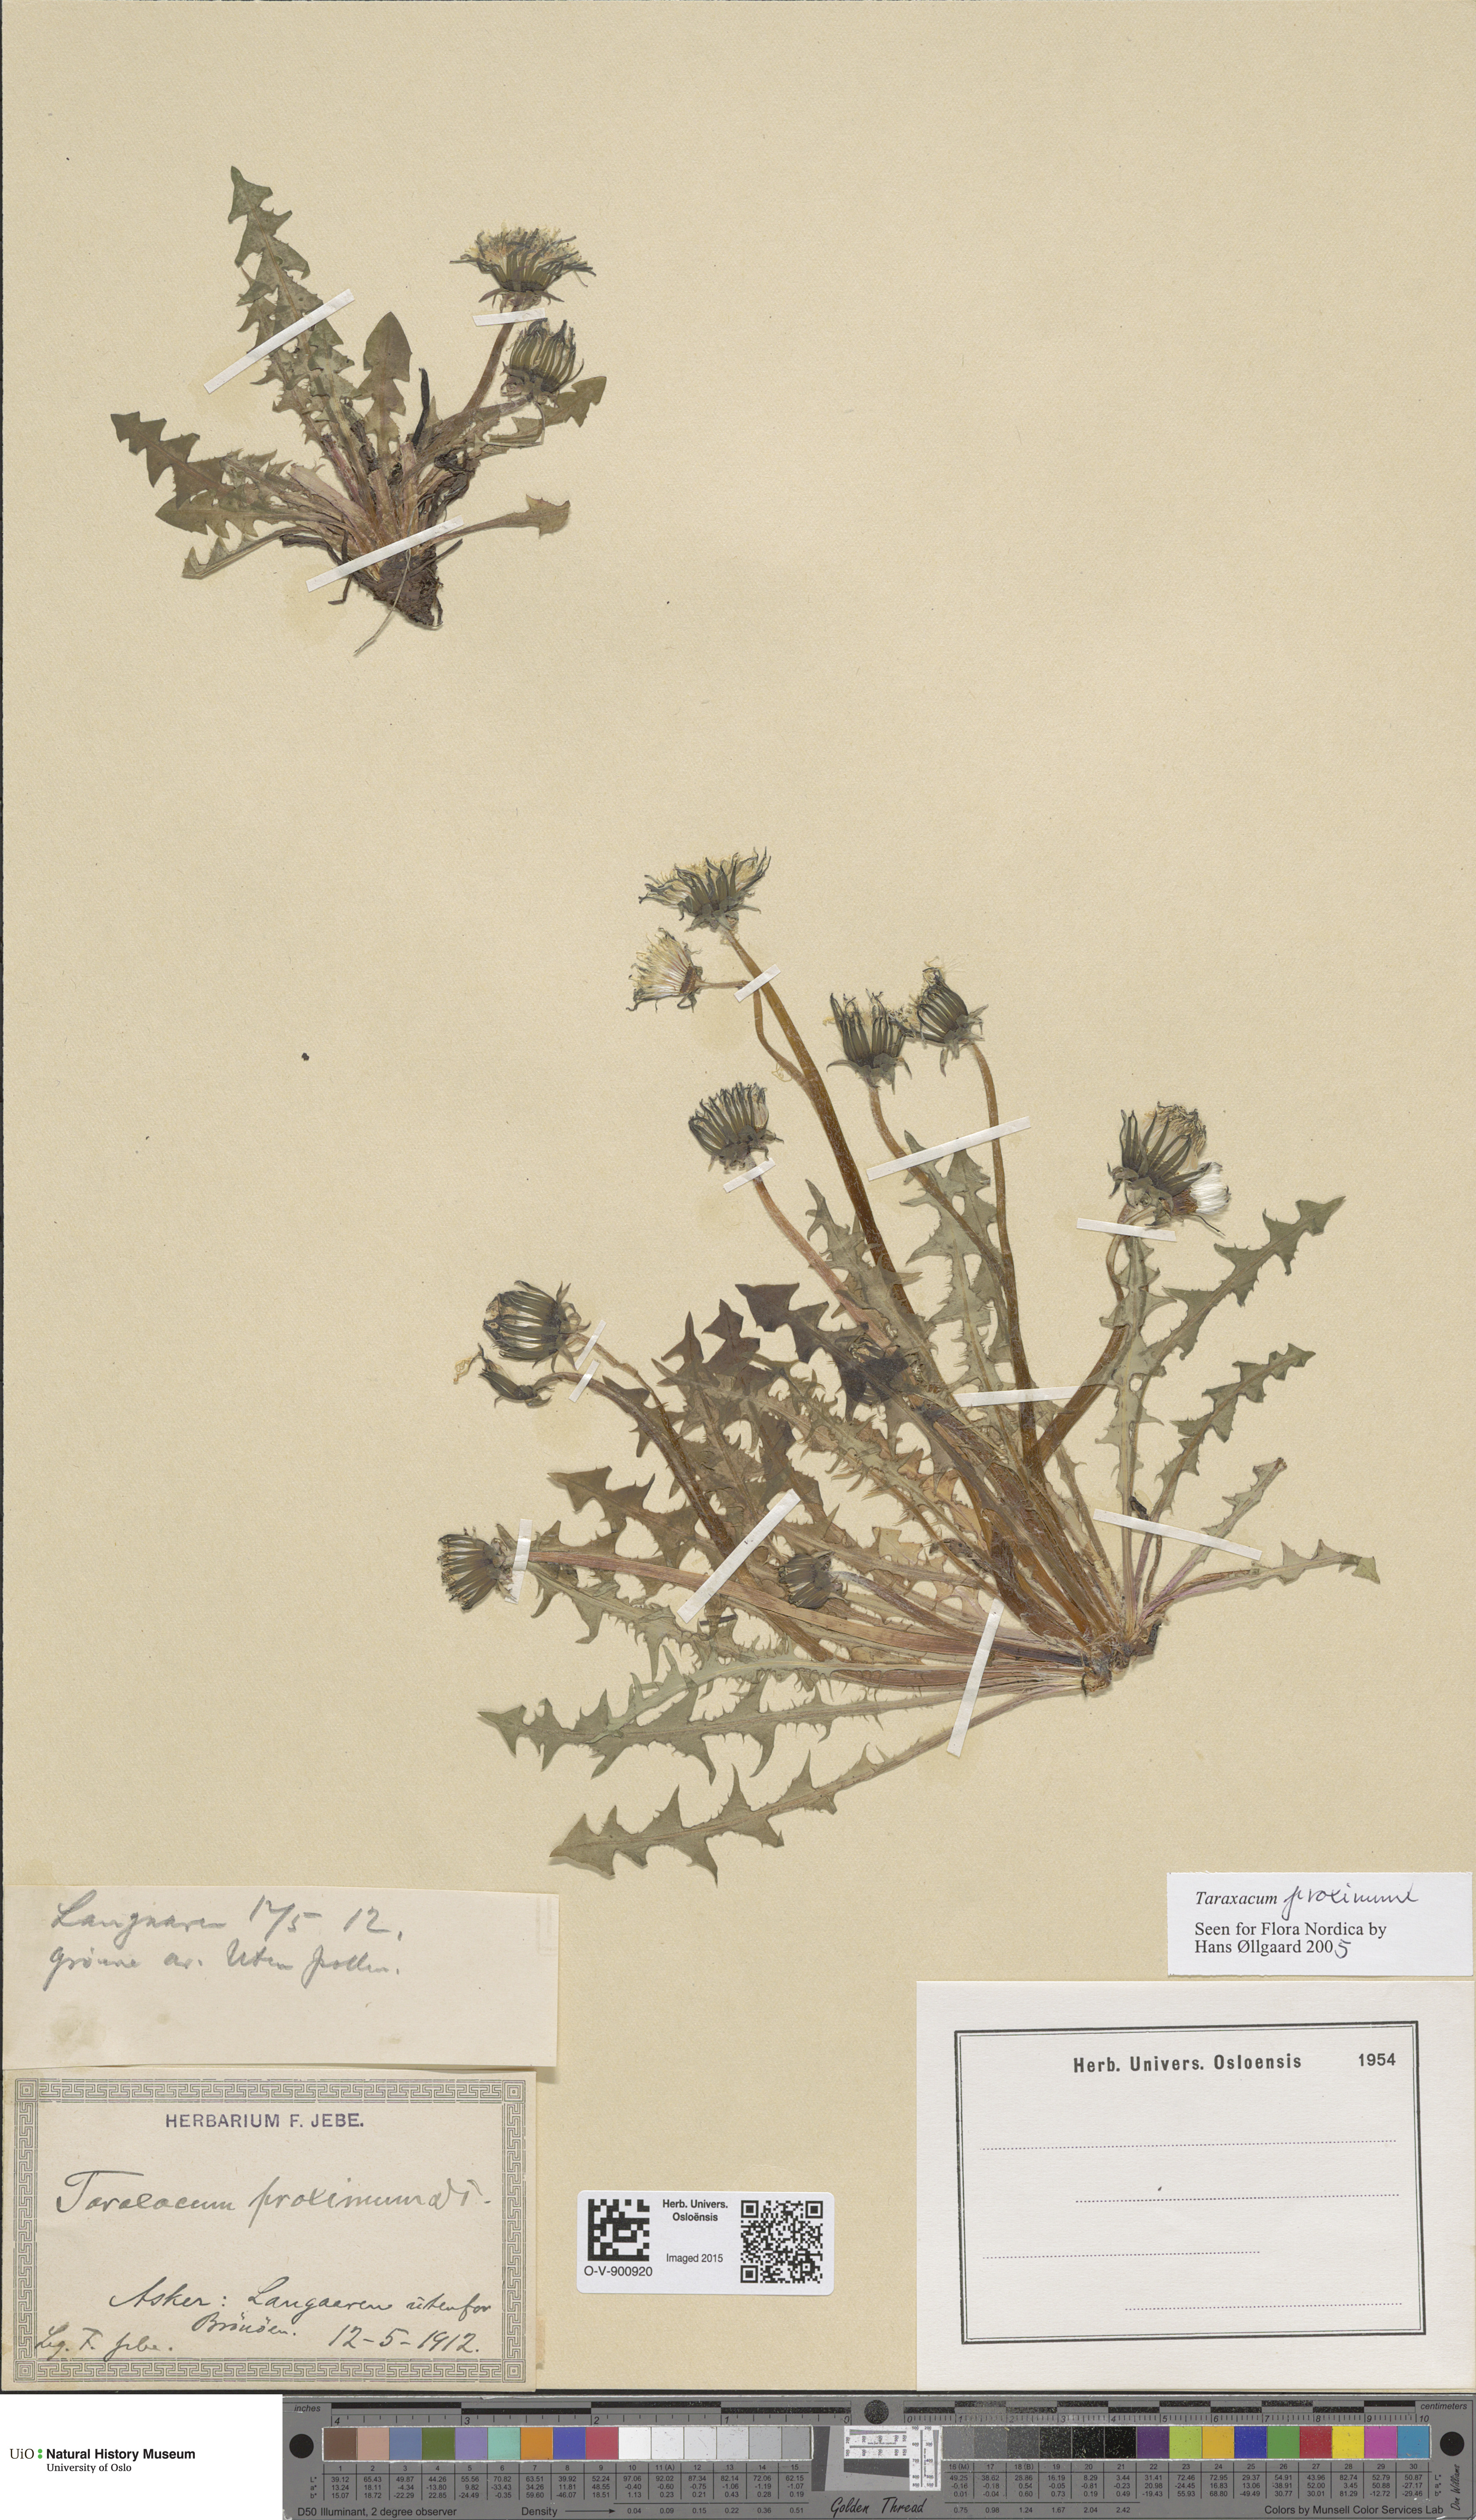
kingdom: Plantae
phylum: Tracheophyta
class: Magnoliopsida
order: Asterales
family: Asteraceae
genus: Taraxacum
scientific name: Taraxacum proximum
